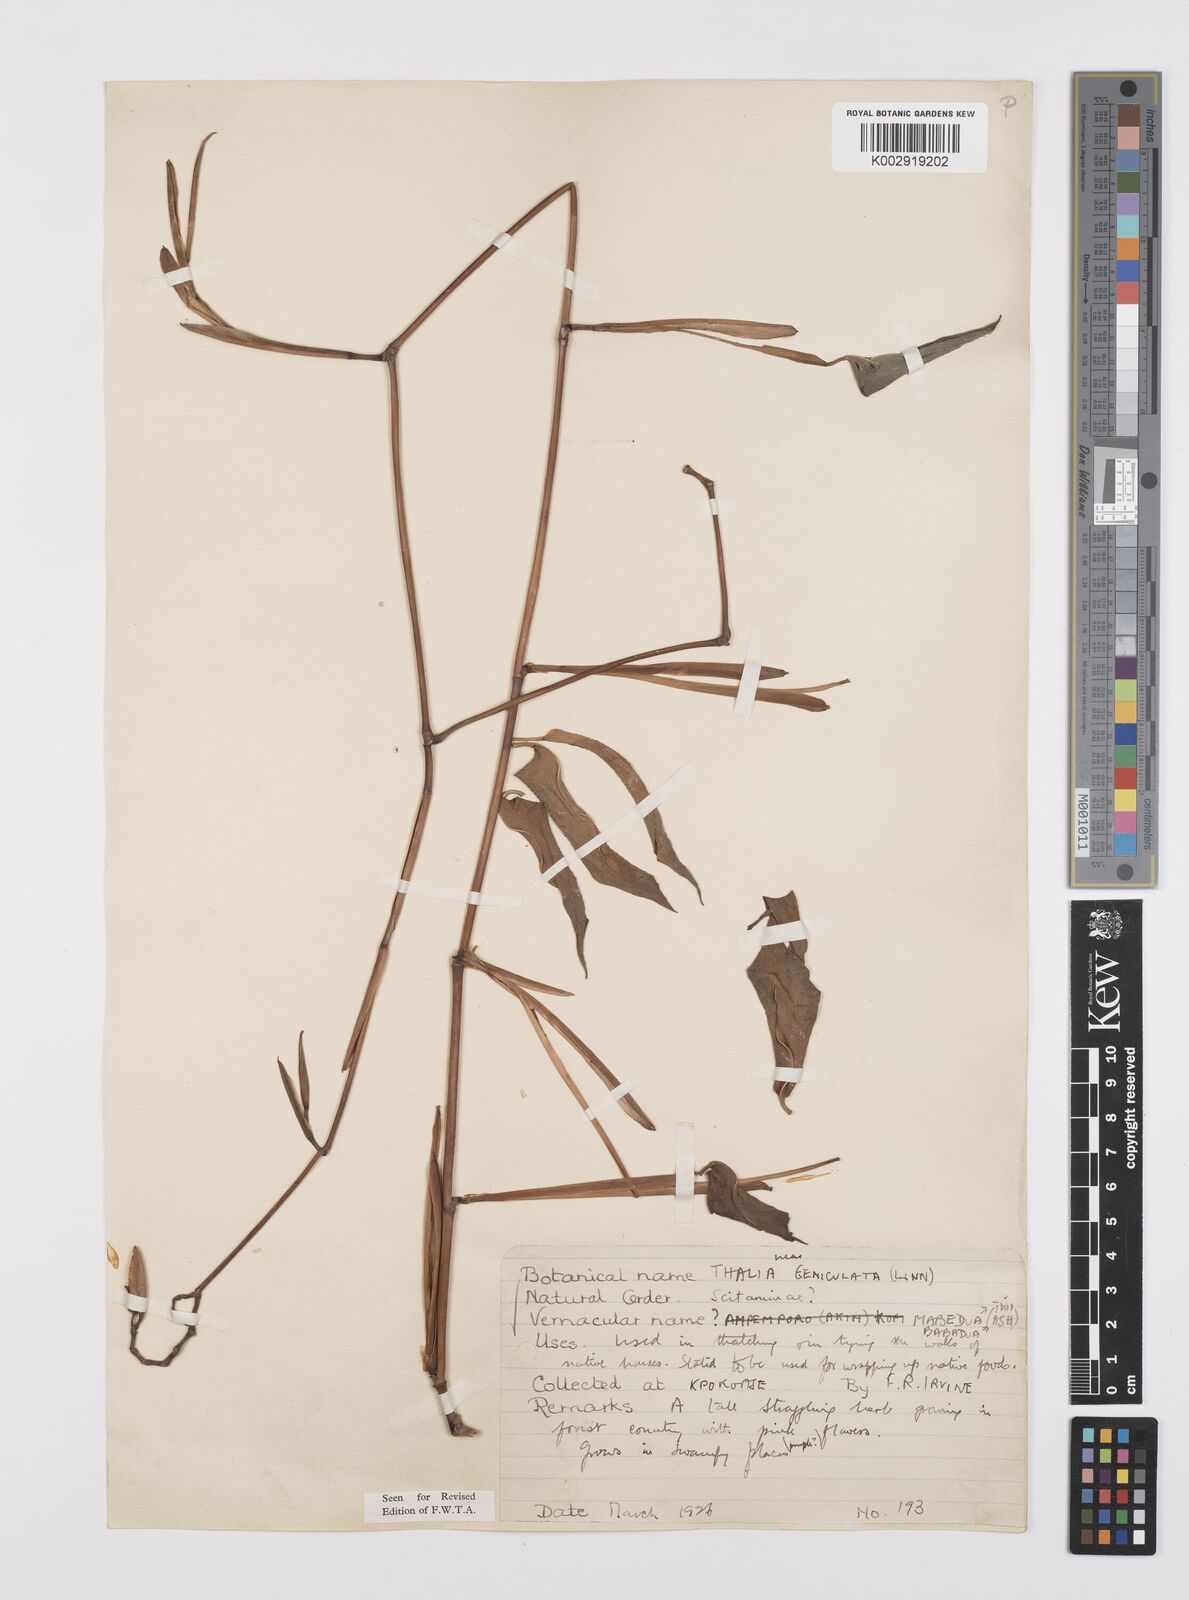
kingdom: Plantae
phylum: Tracheophyta
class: Liliopsida
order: Zingiberales
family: Marantaceae
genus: Hypselodelphys
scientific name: Hypselodelphys poggeana
